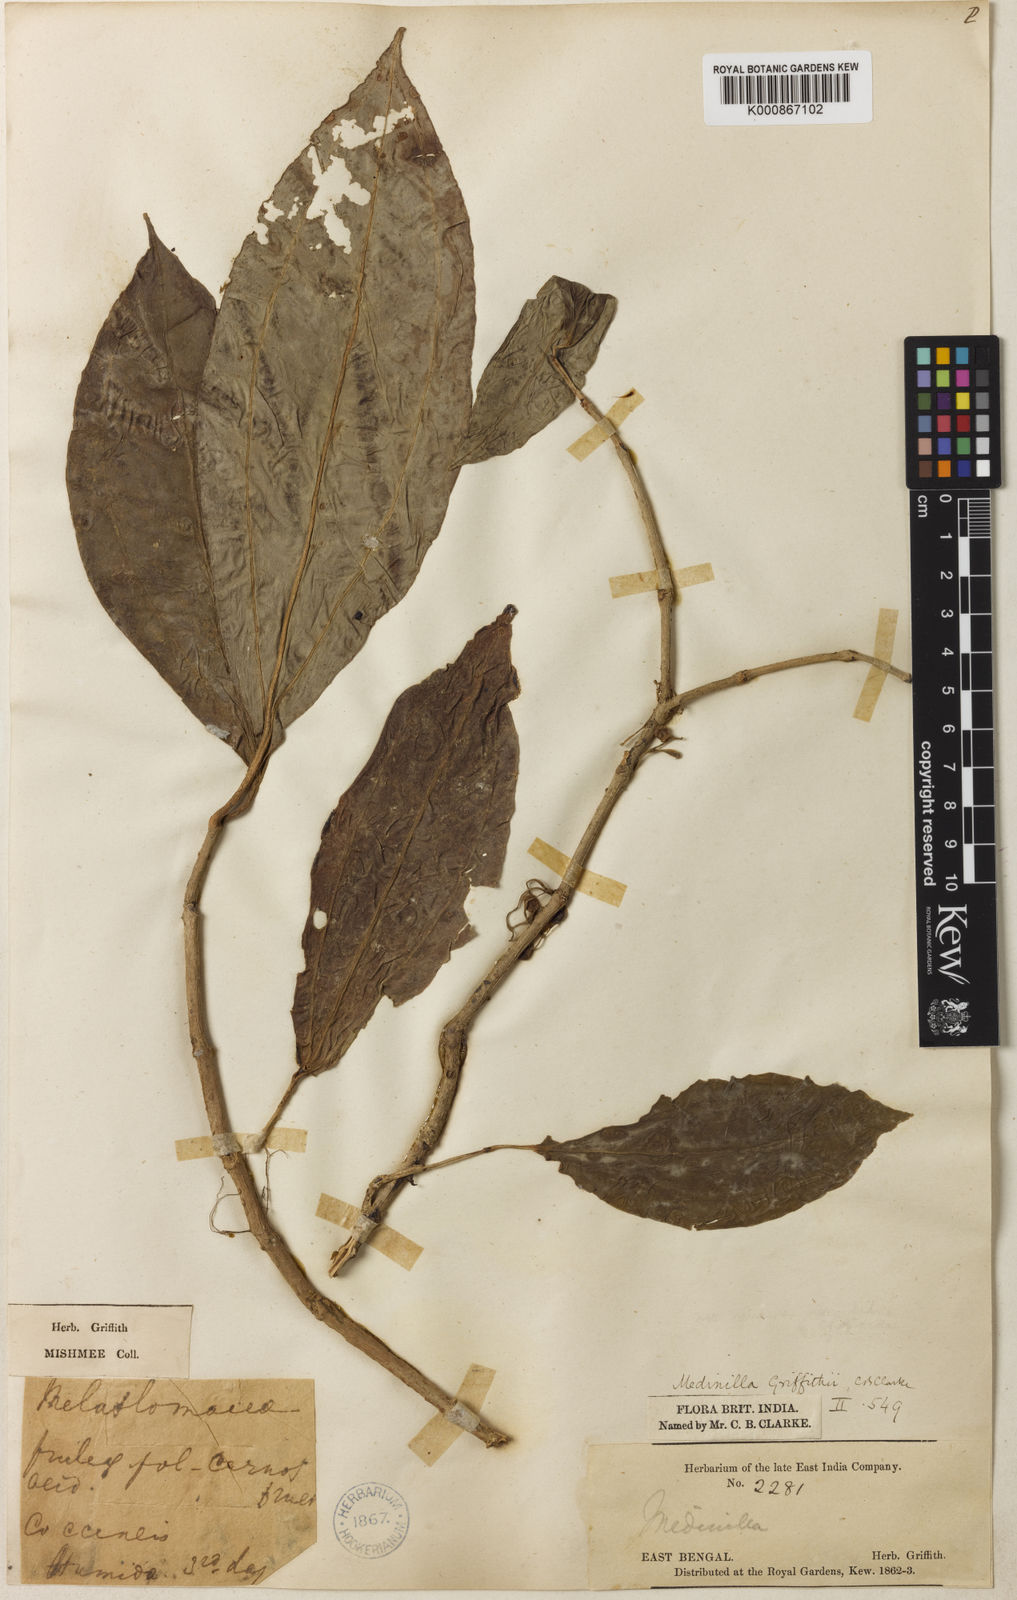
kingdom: Plantae
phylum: Tracheophyta
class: Magnoliopsida
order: Myrtales
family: Melastomataceae
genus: Medinilla
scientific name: Medinilla griffithii
